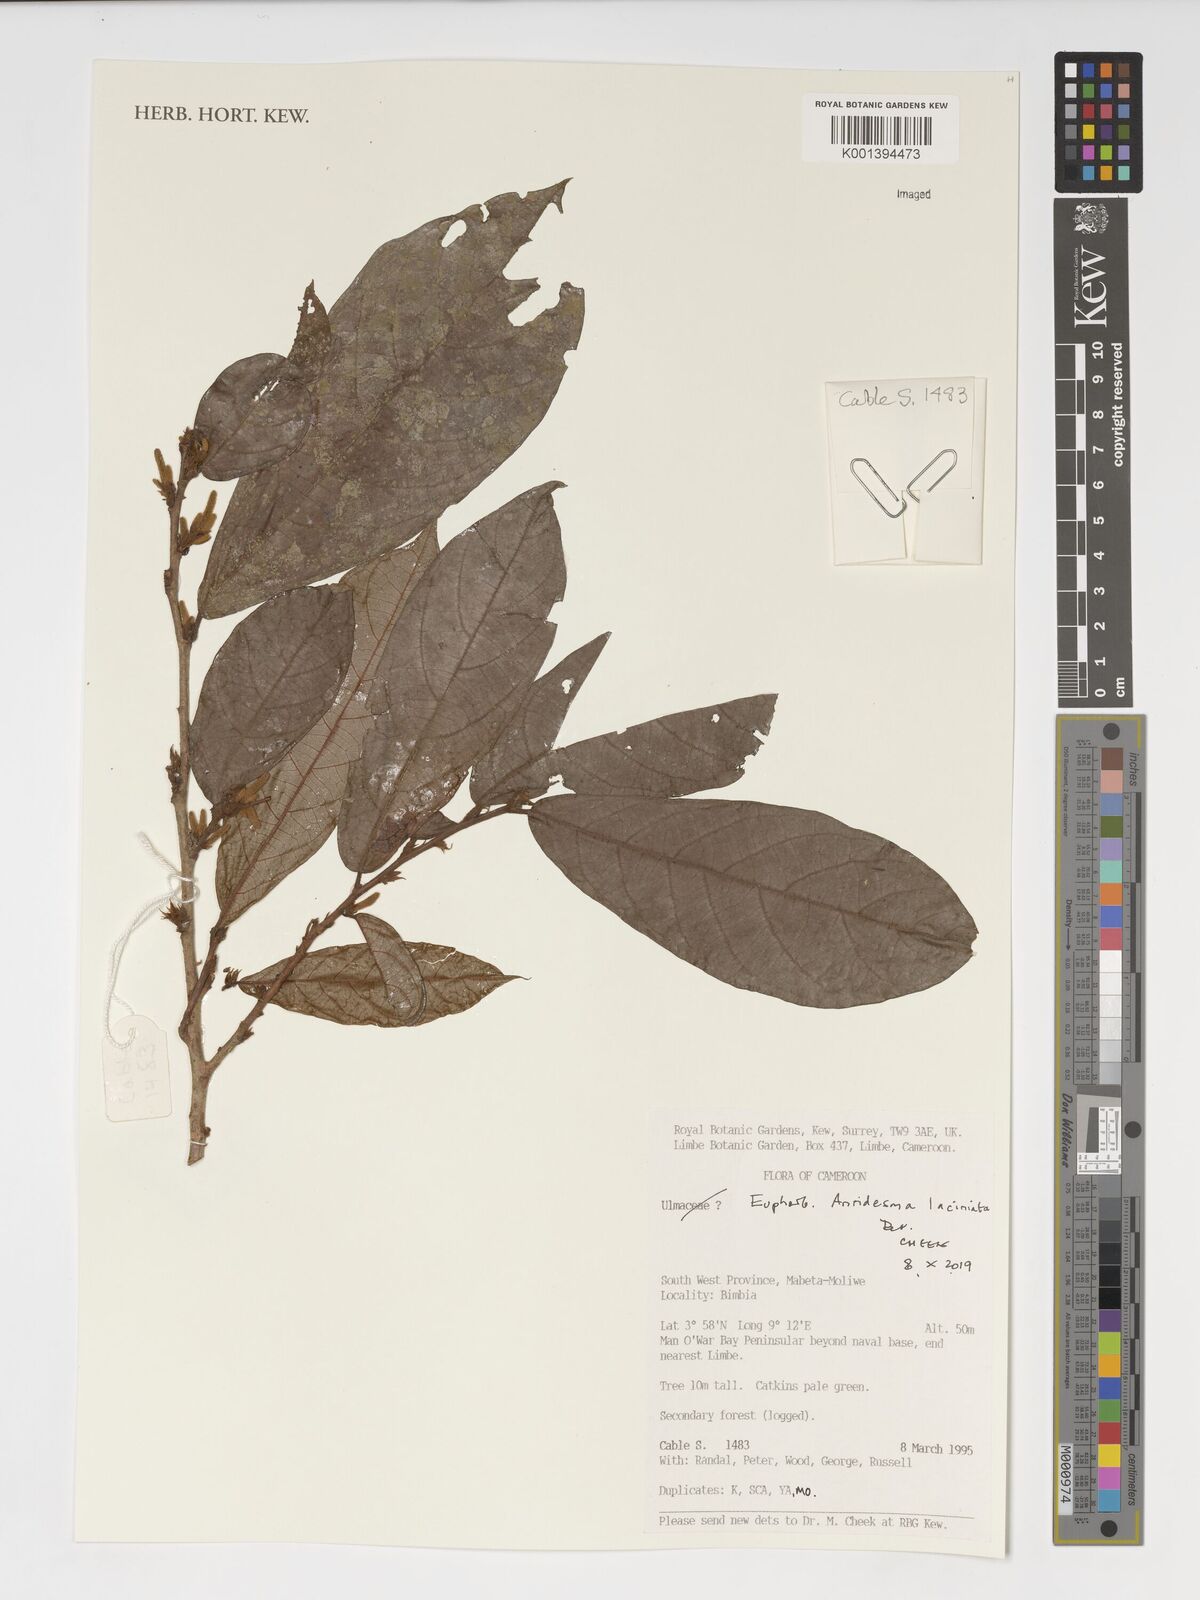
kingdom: Plantae
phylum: Tracheophyta
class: Magnoliopsida
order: Malpighiales
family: Phyllanthaceae
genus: Antidesma
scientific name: Antidesma laciniatum
